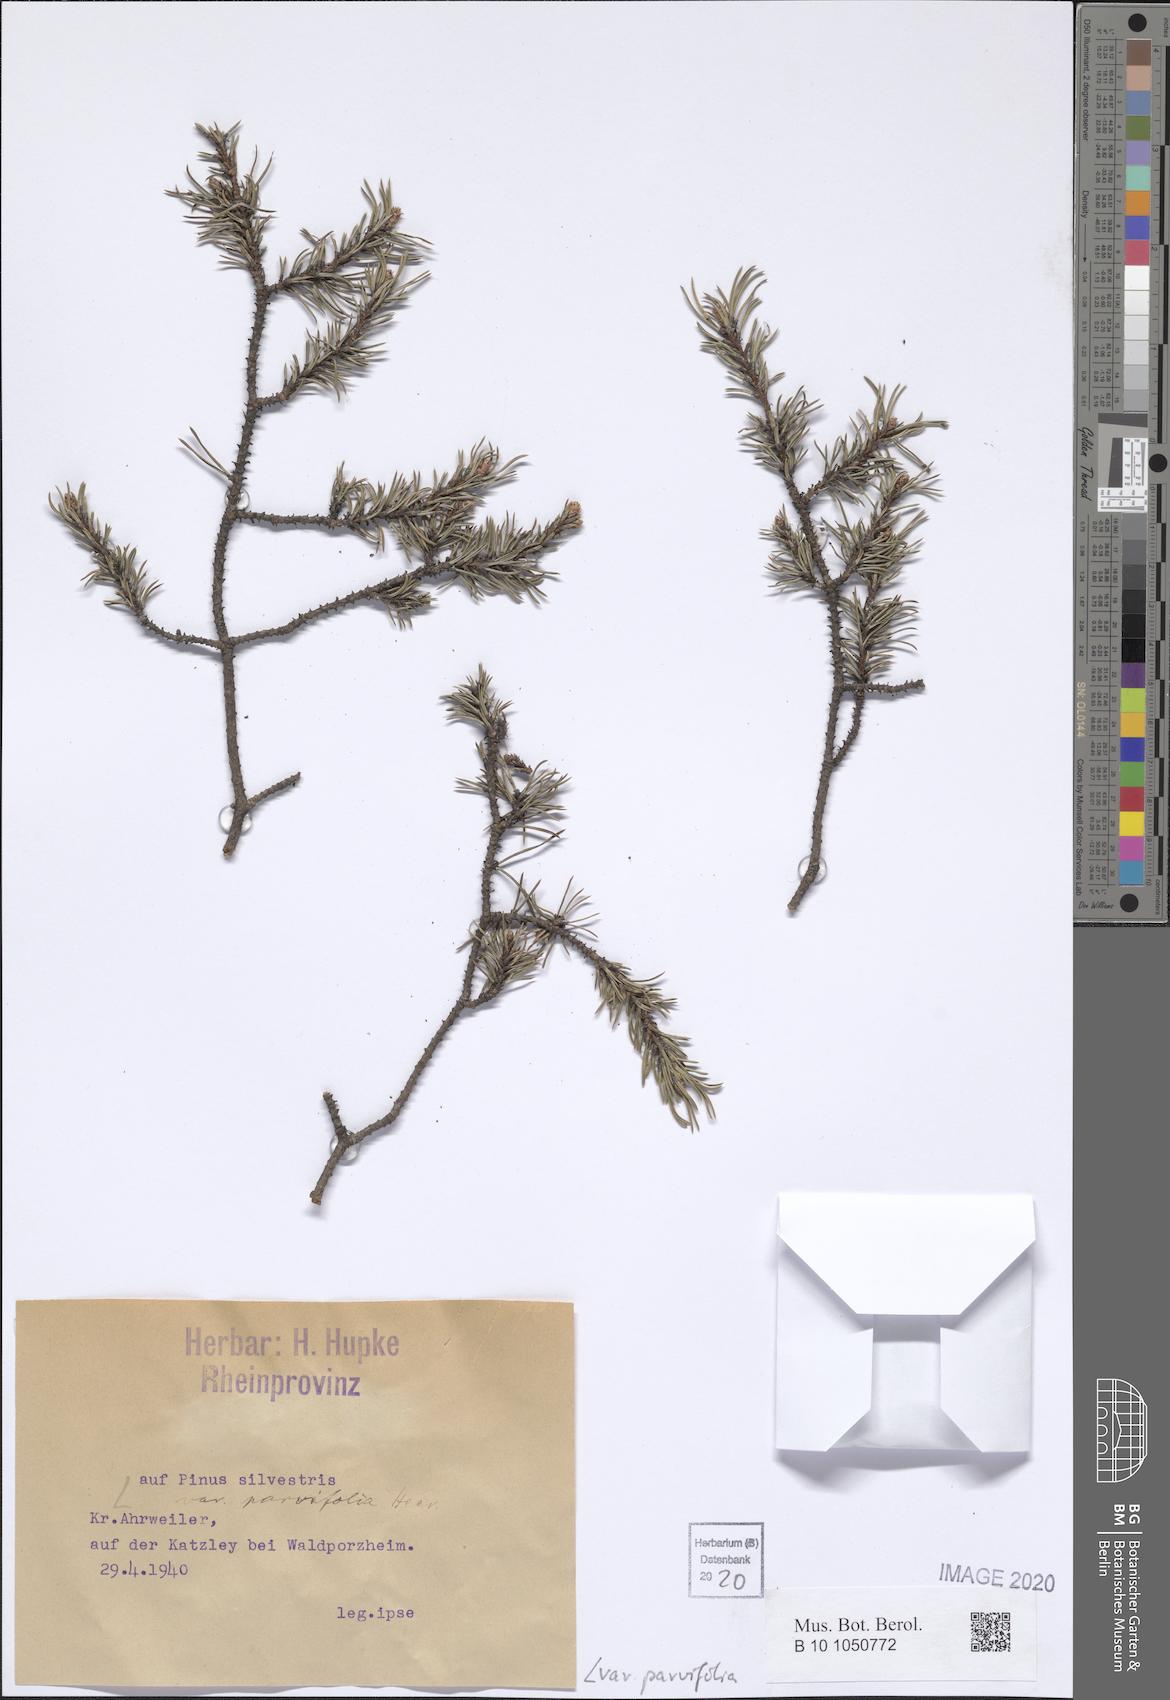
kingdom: Plantae
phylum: Tracheophyta
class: Pinopsida
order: Pinales
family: Pinaceae
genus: Pinus
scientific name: Pinus sylvestris
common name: Scots pine
